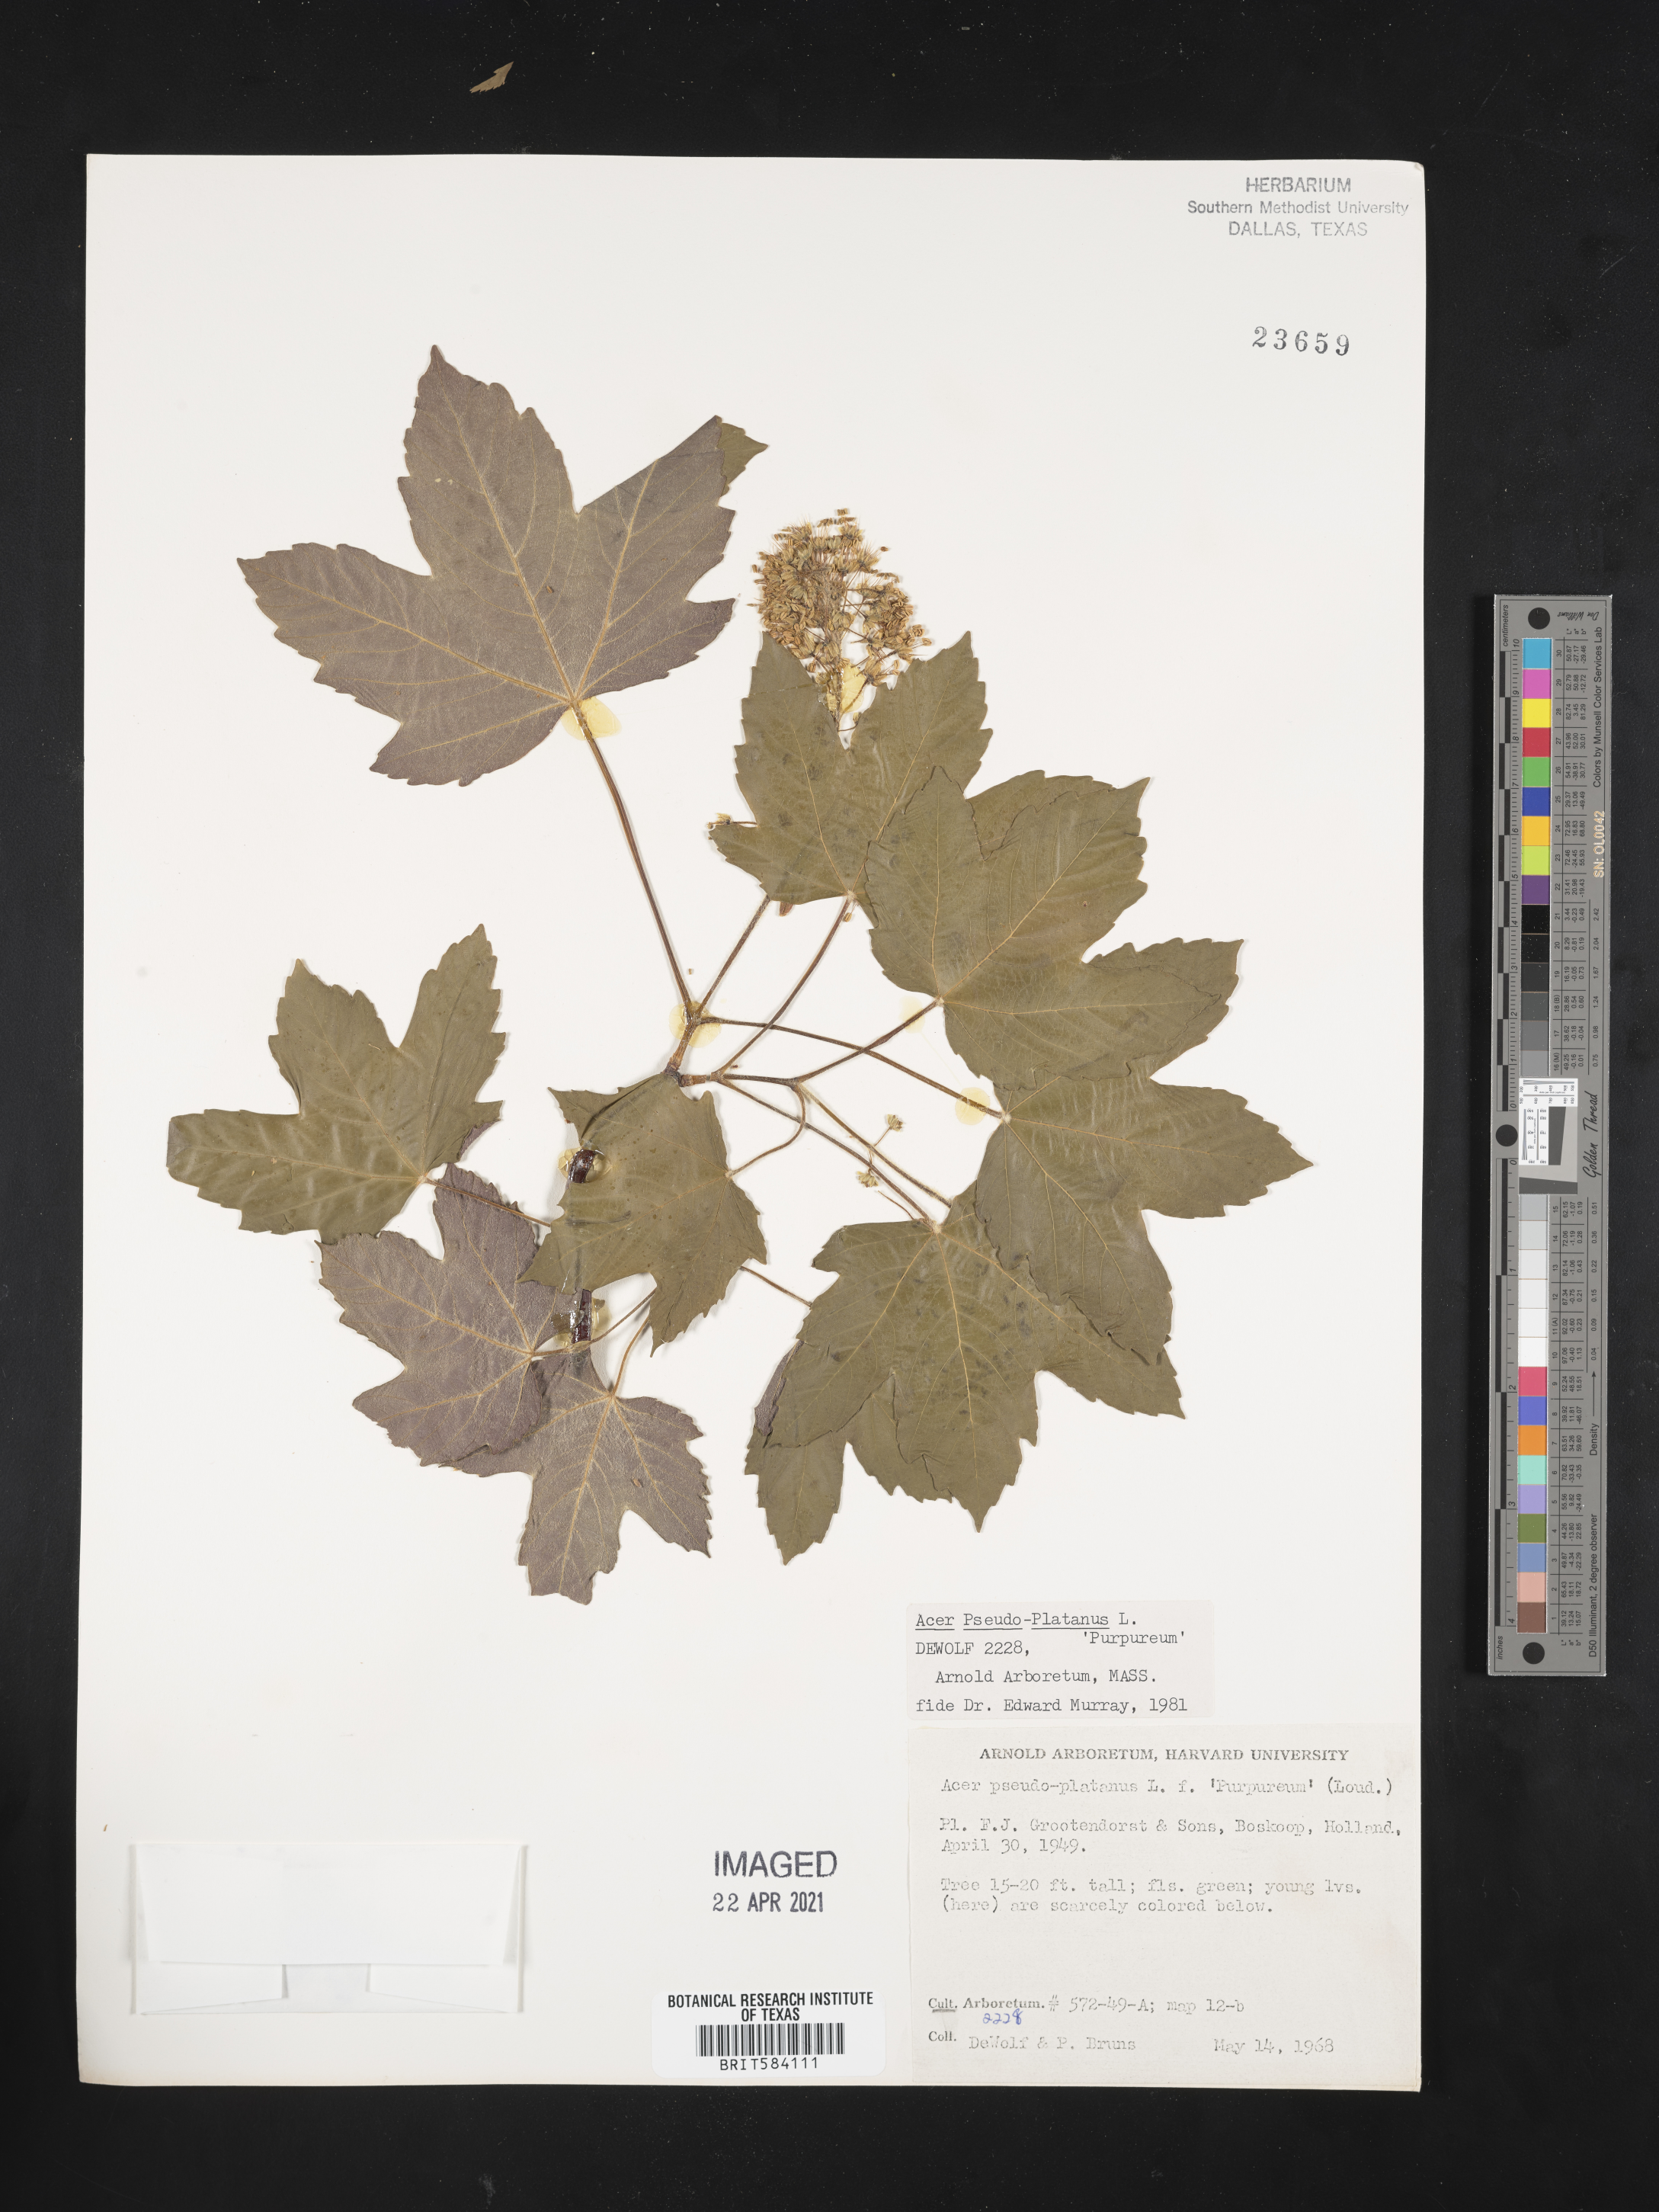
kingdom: Plantae
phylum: Tracheophyta
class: Magnoliopsida
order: Sapindales
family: Sapindaceae
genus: Acer
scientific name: Acer pseudoplatanus
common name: Sycamore
